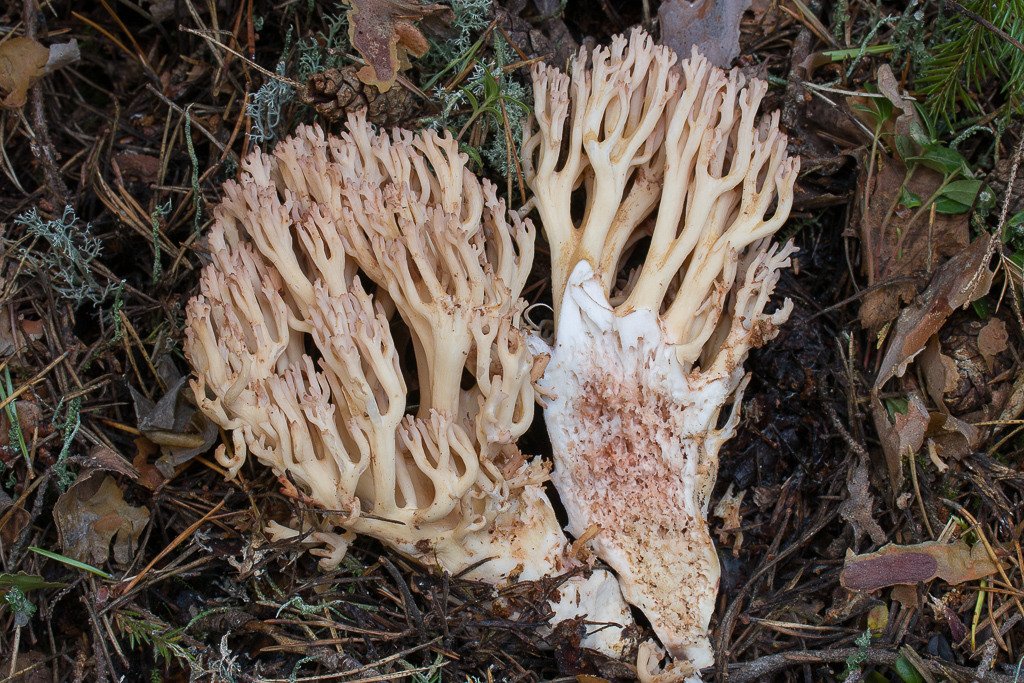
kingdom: Fungi
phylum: Basidiomycota
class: Agaricomycetes
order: Gomphales
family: Gomphaceae
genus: Ramaria
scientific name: Ramaria
